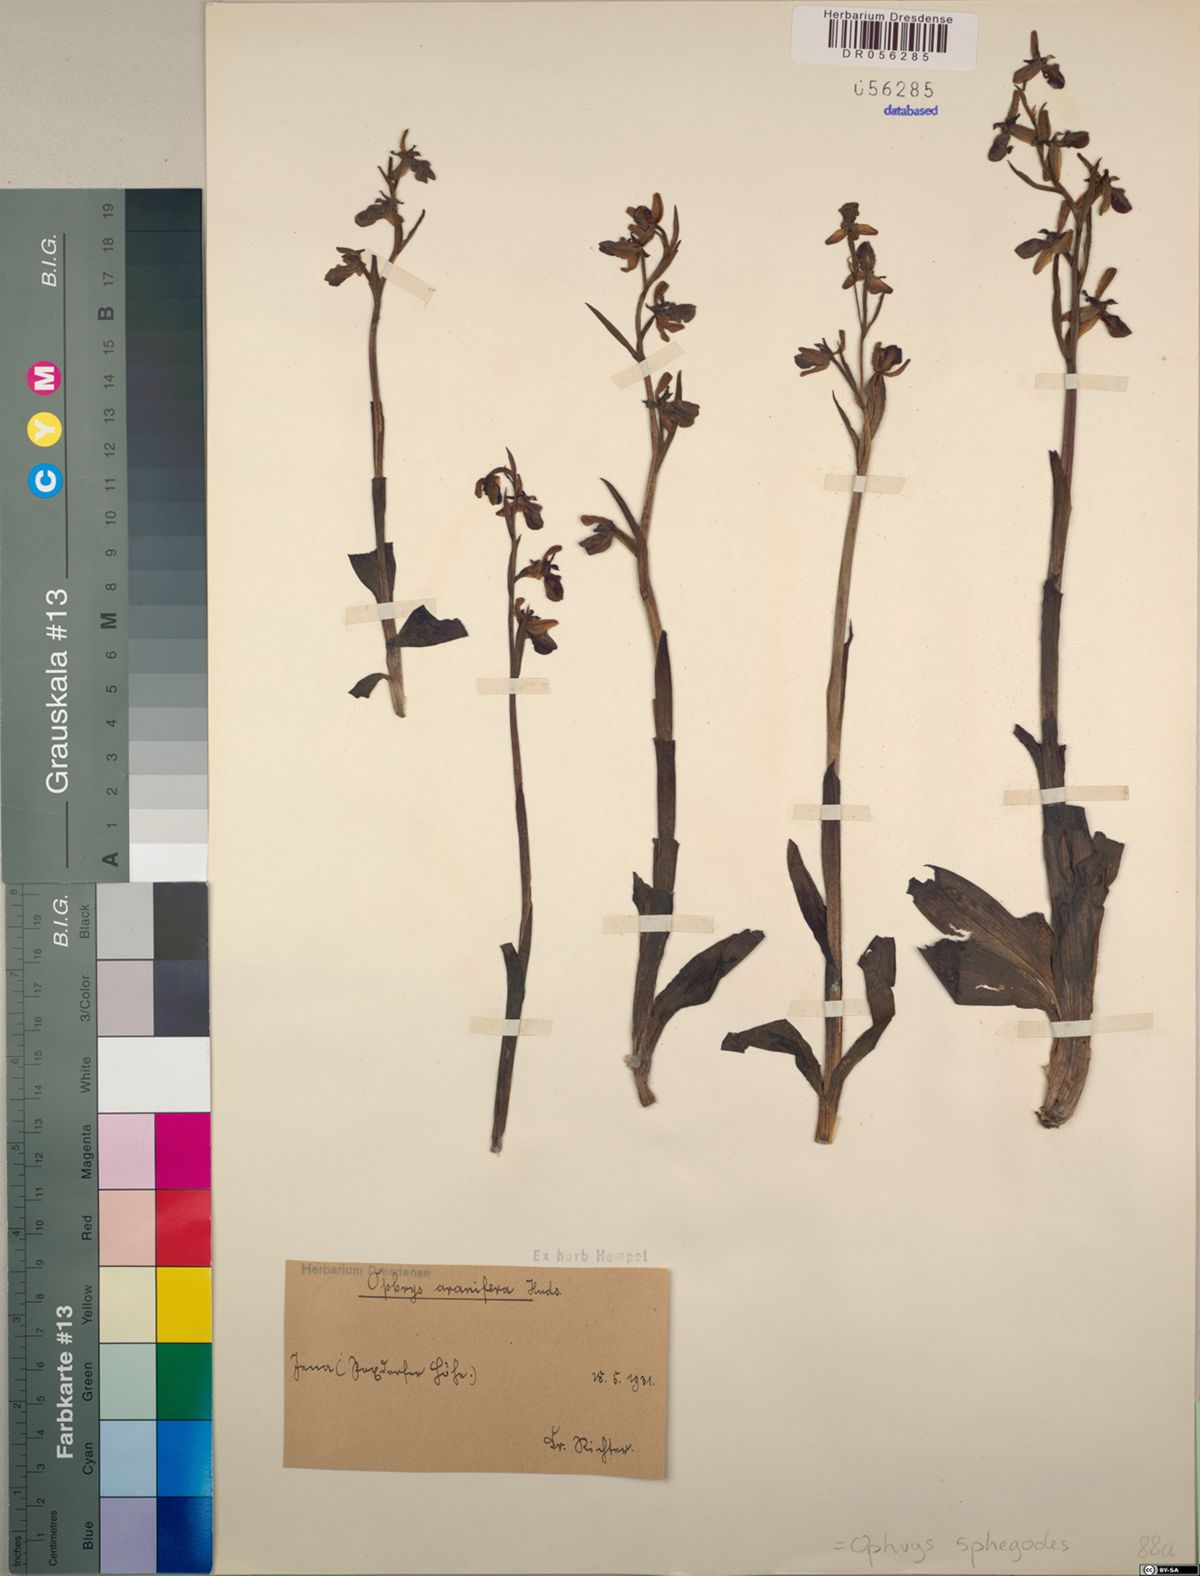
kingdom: Plantae
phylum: Tracheophyta
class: Liliopsida
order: Asparagales
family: Orchidaceae
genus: Ophrys
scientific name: Ophrys sphegodes
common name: Early spider-orchid
